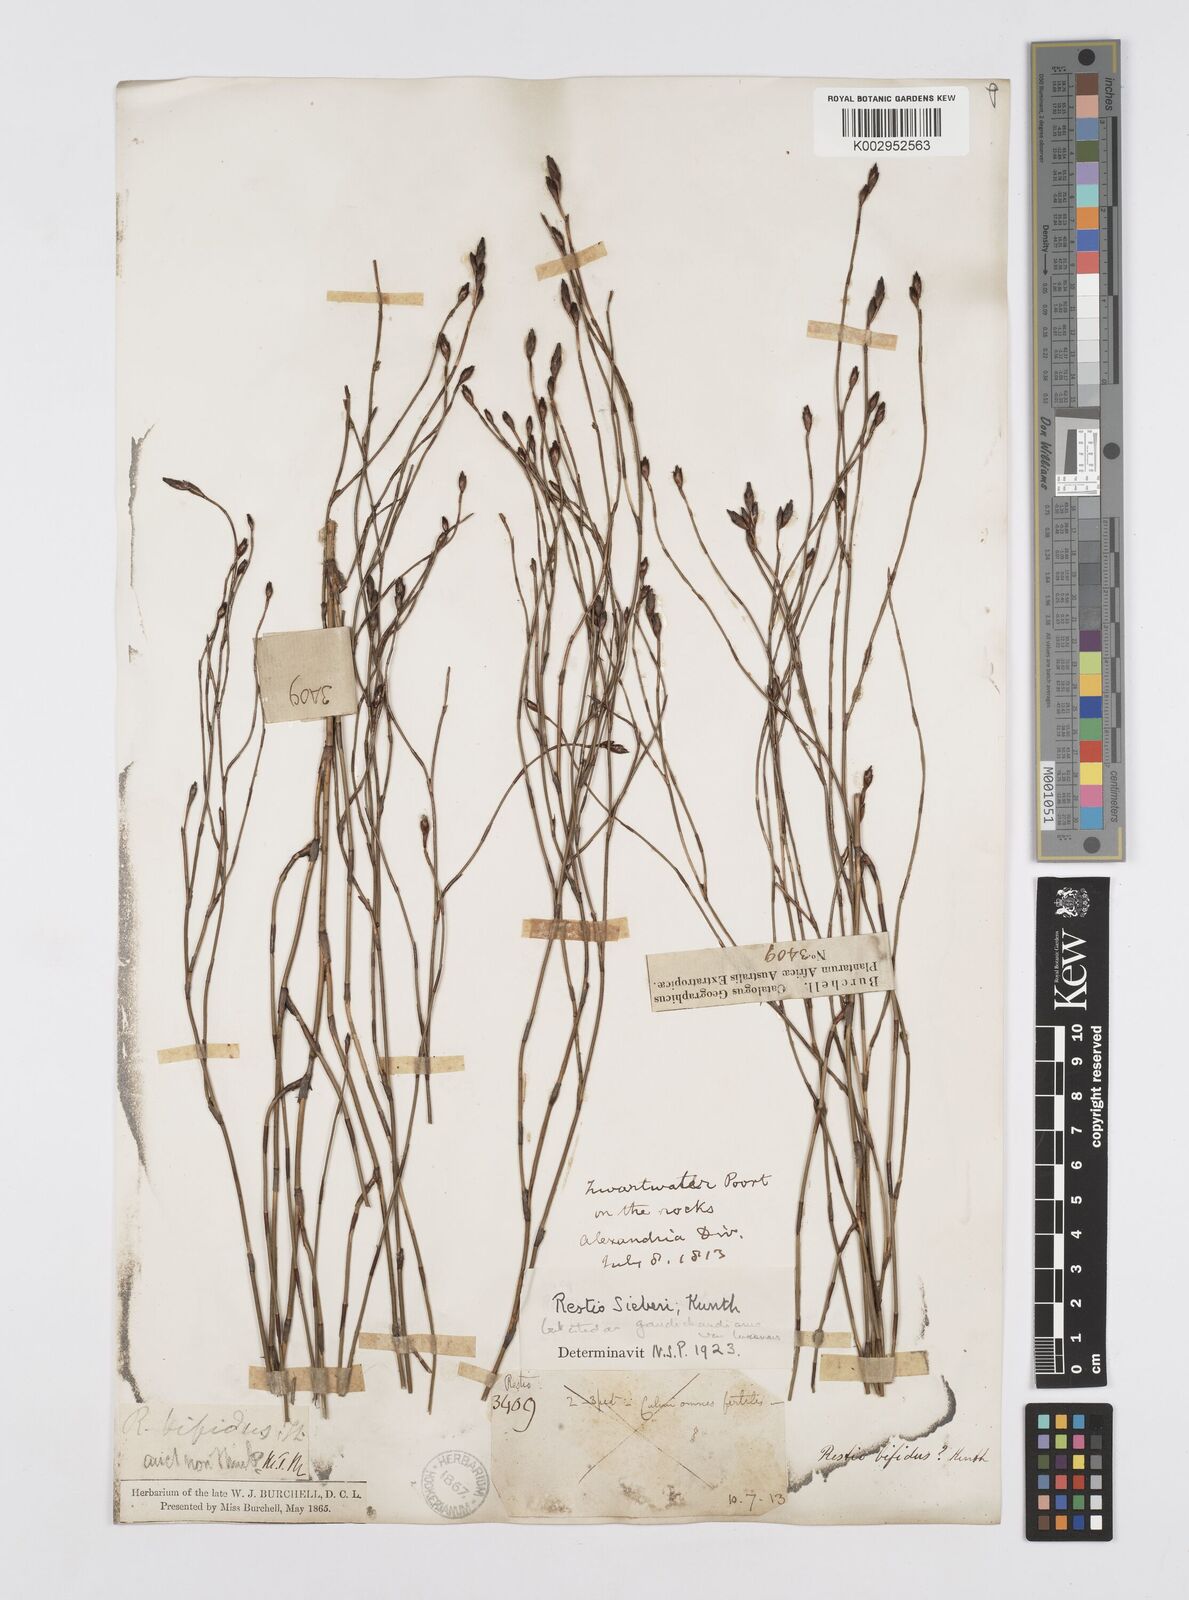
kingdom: Plantae
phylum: Tracheophyta
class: Liliopsida
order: Poales
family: Restionaceae
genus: Restio
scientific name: Restio gaudichaudianus
